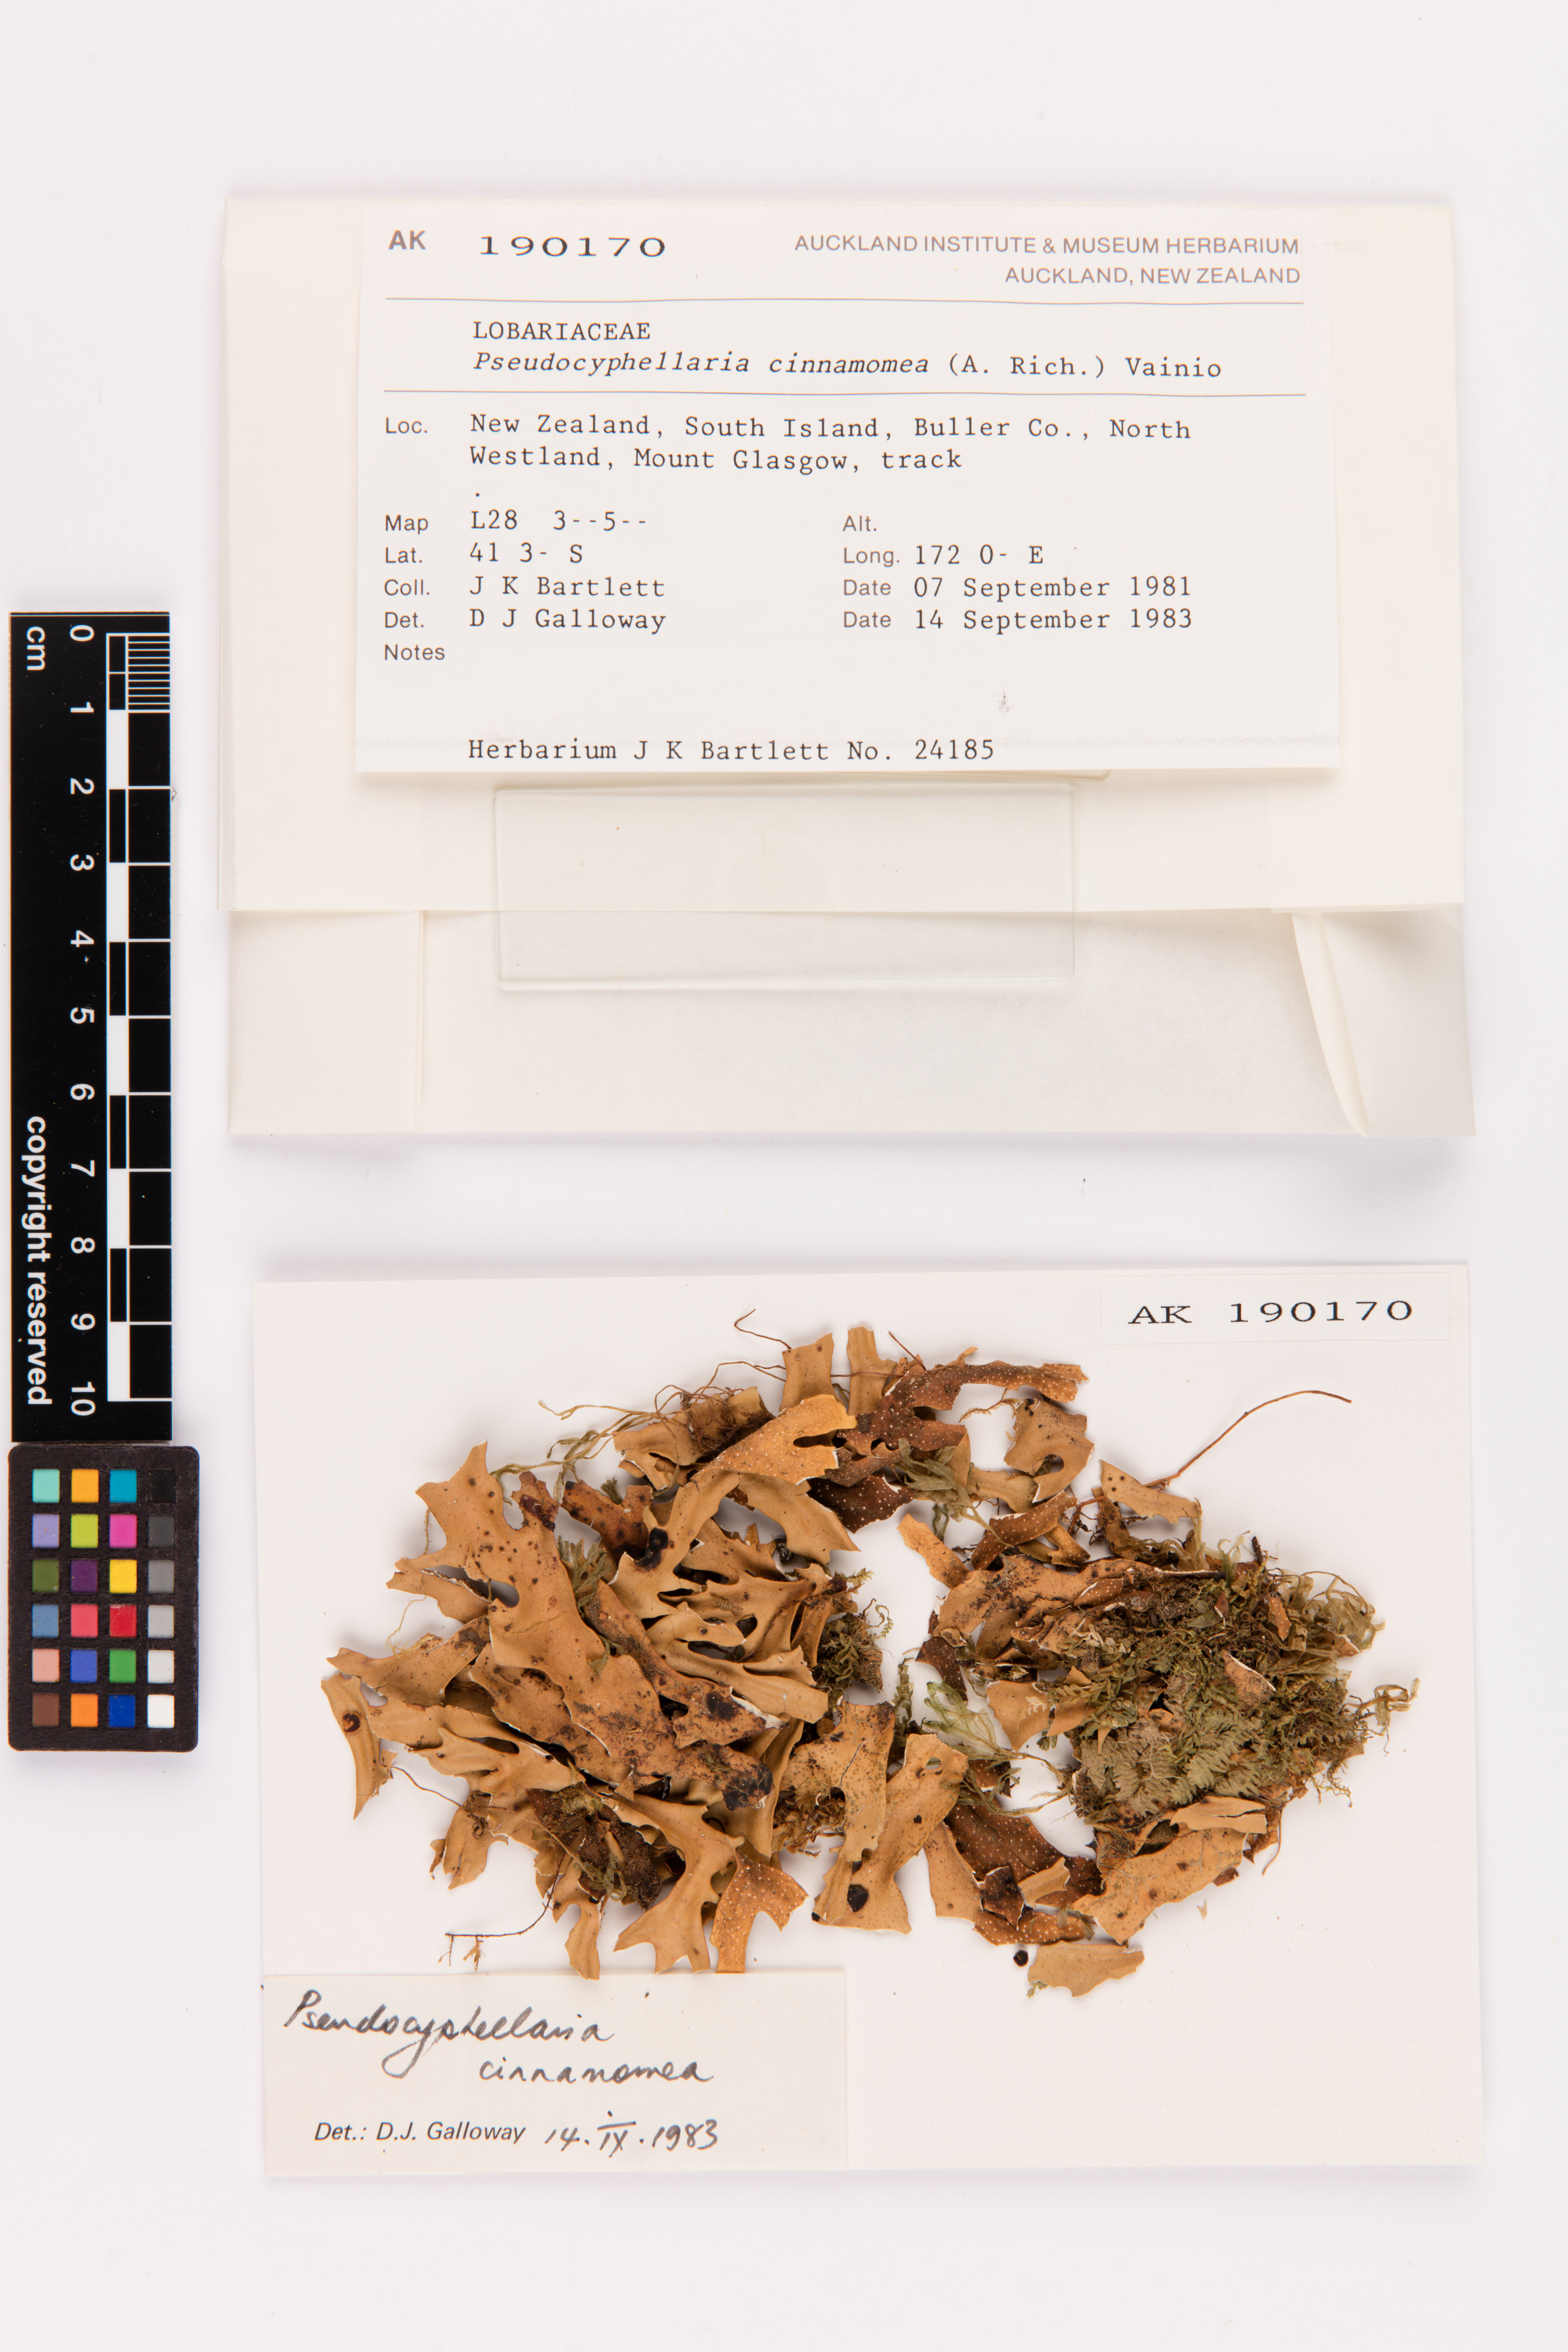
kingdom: Fungi
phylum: Ascomycota
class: Lecanoromycetes
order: Peltigerales
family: Lobariaceae
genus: Pseudocyphellaria
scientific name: Pseudocyphellaria cinnamomea
